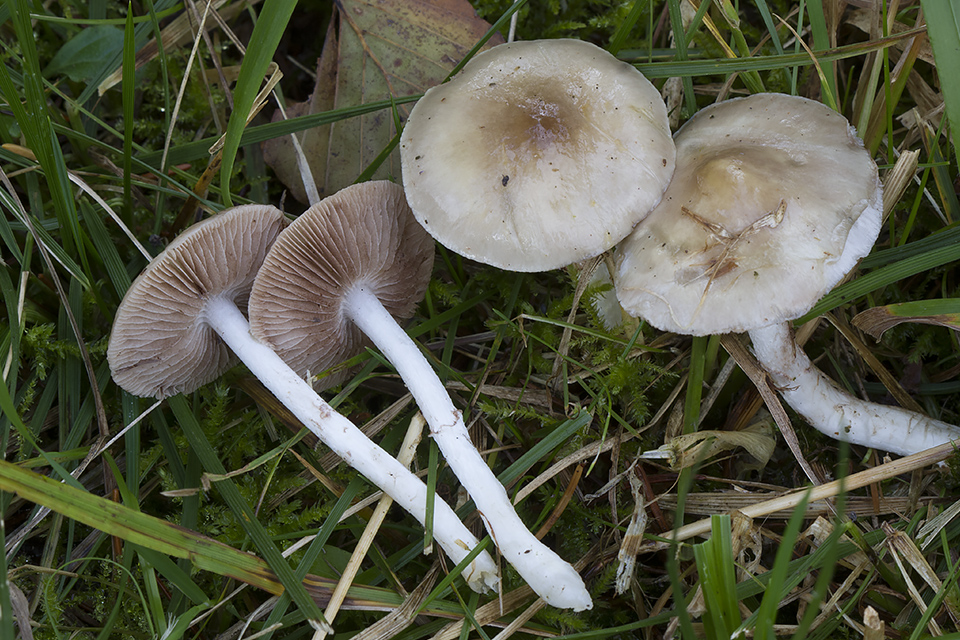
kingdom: Fungi
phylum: Basidiomycota
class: Agaricomycetes
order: Agaricales
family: Strophariaceae
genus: Stropharia
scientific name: Stropharia inuncta
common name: lillabrun bredblad
